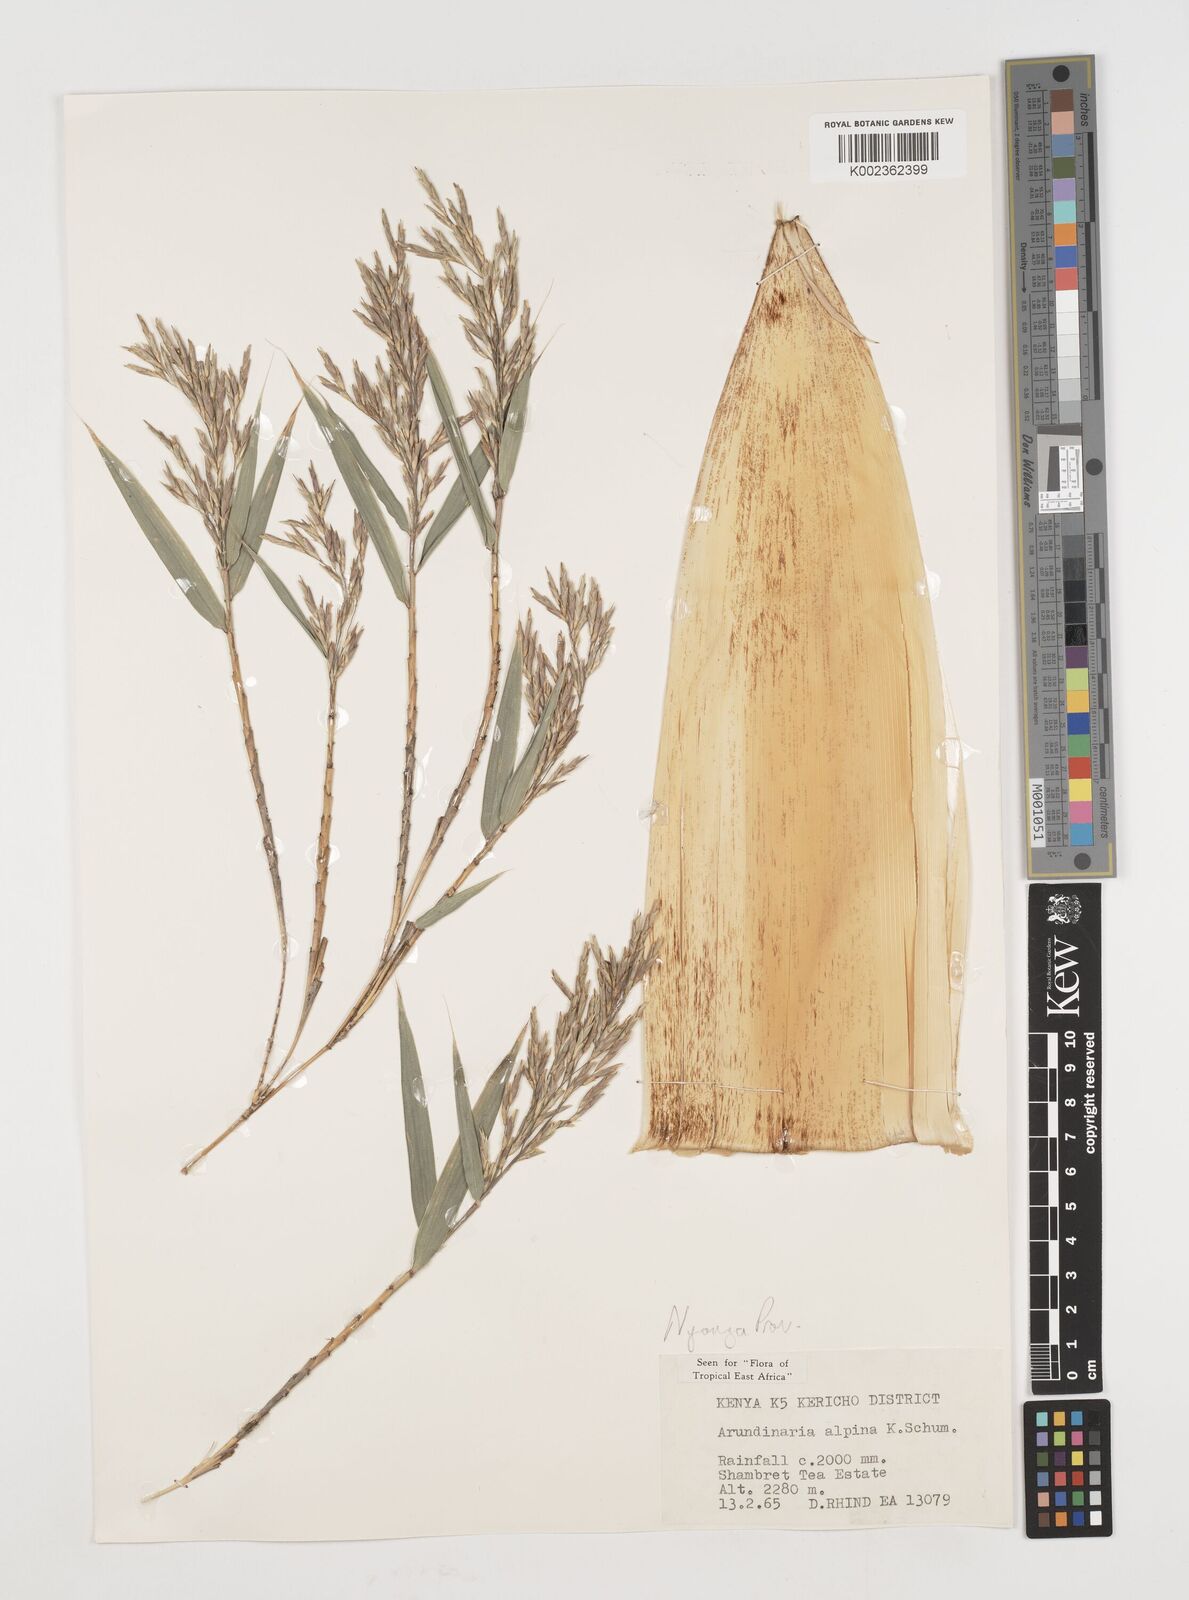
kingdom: Plantae
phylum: Tracheophyta
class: Liliopsida
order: Poales
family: Poaceae
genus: Oldeania
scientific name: Oldeania alpina
